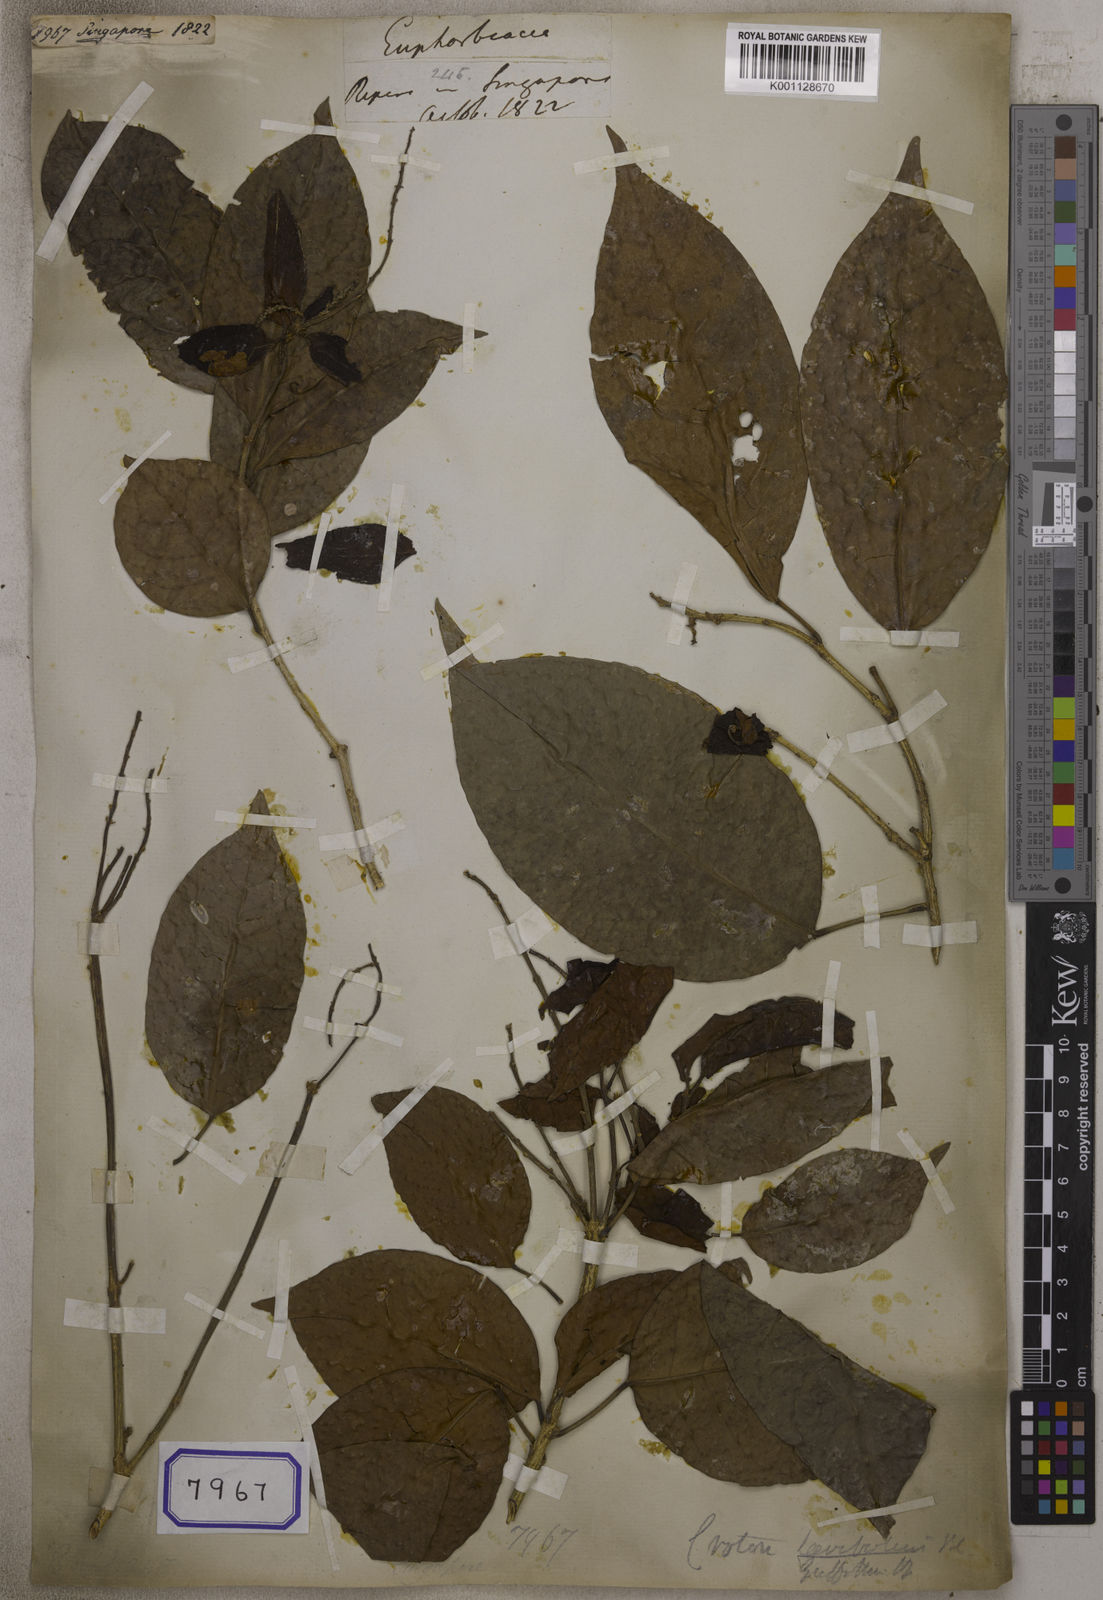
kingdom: Plantae
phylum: Tracheophyta
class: Magnoliopsida
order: Malpighiales
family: Euphorbiaceae
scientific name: Euphorbiaceae
